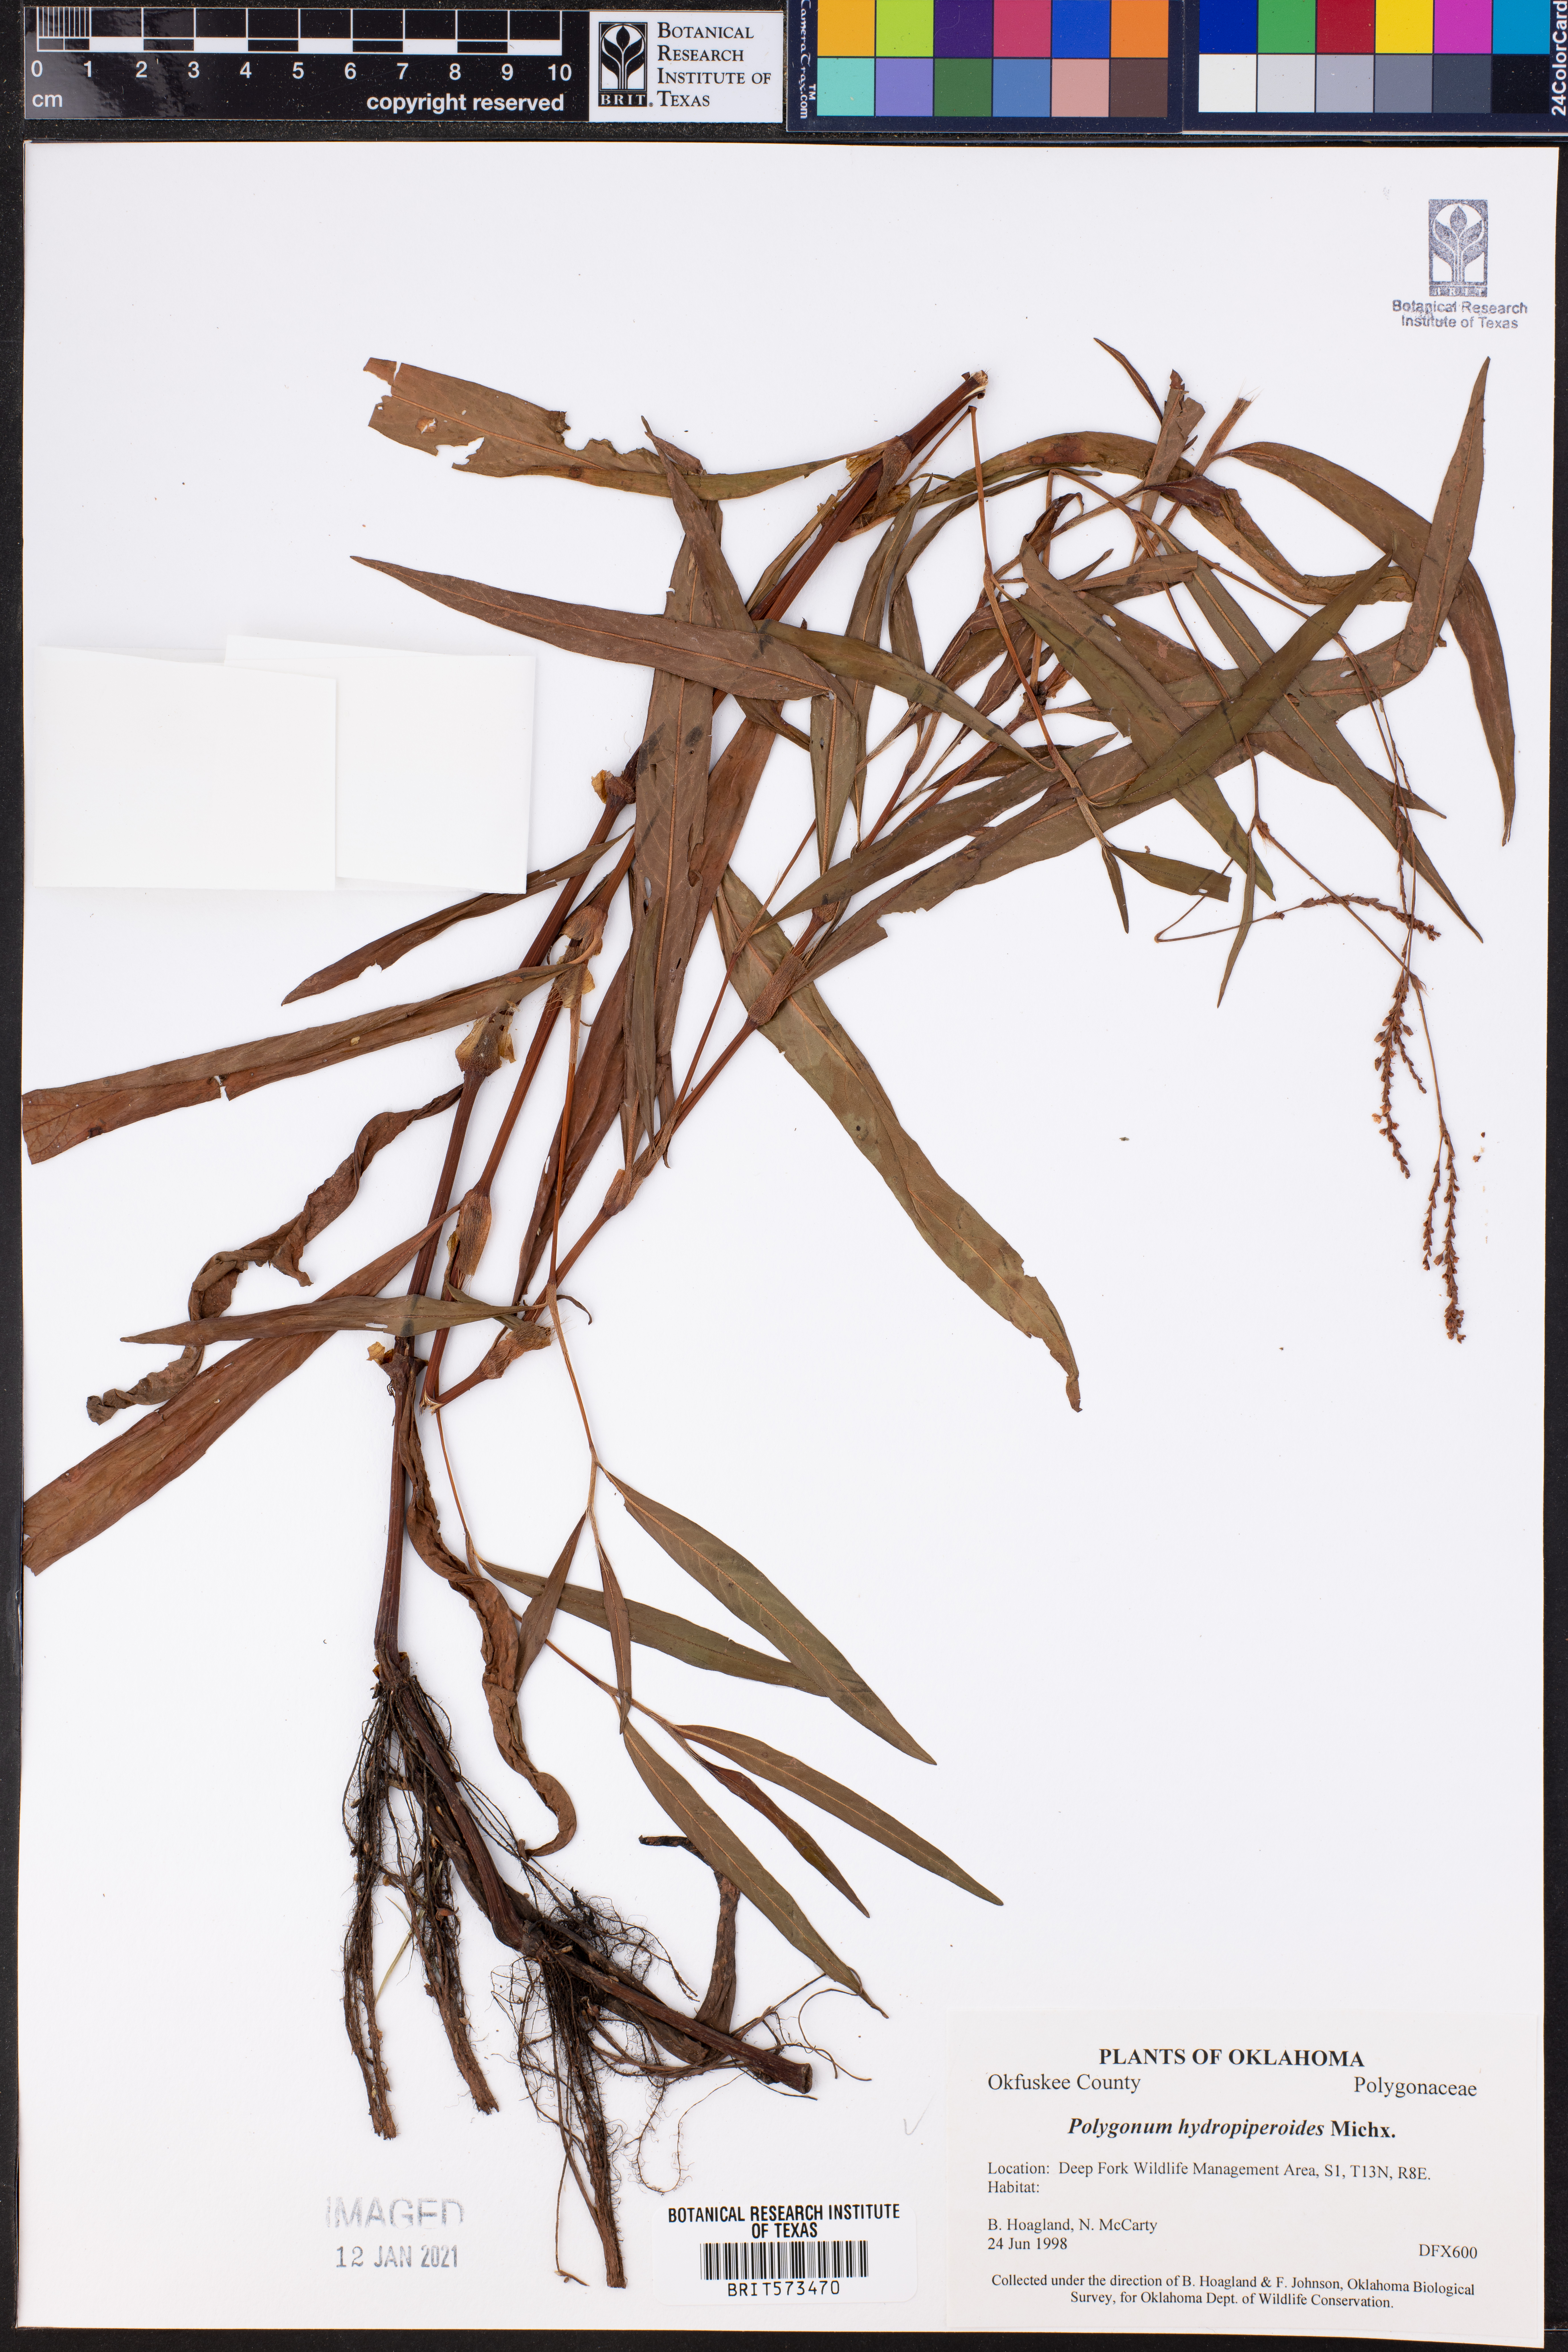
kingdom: Plantae
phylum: Tracheophyta
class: Magnoliopsida
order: Caryophyllales
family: Polygonaceae
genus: Persicaria
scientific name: Persicaria hydropiperoides
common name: Swamp smartweed
